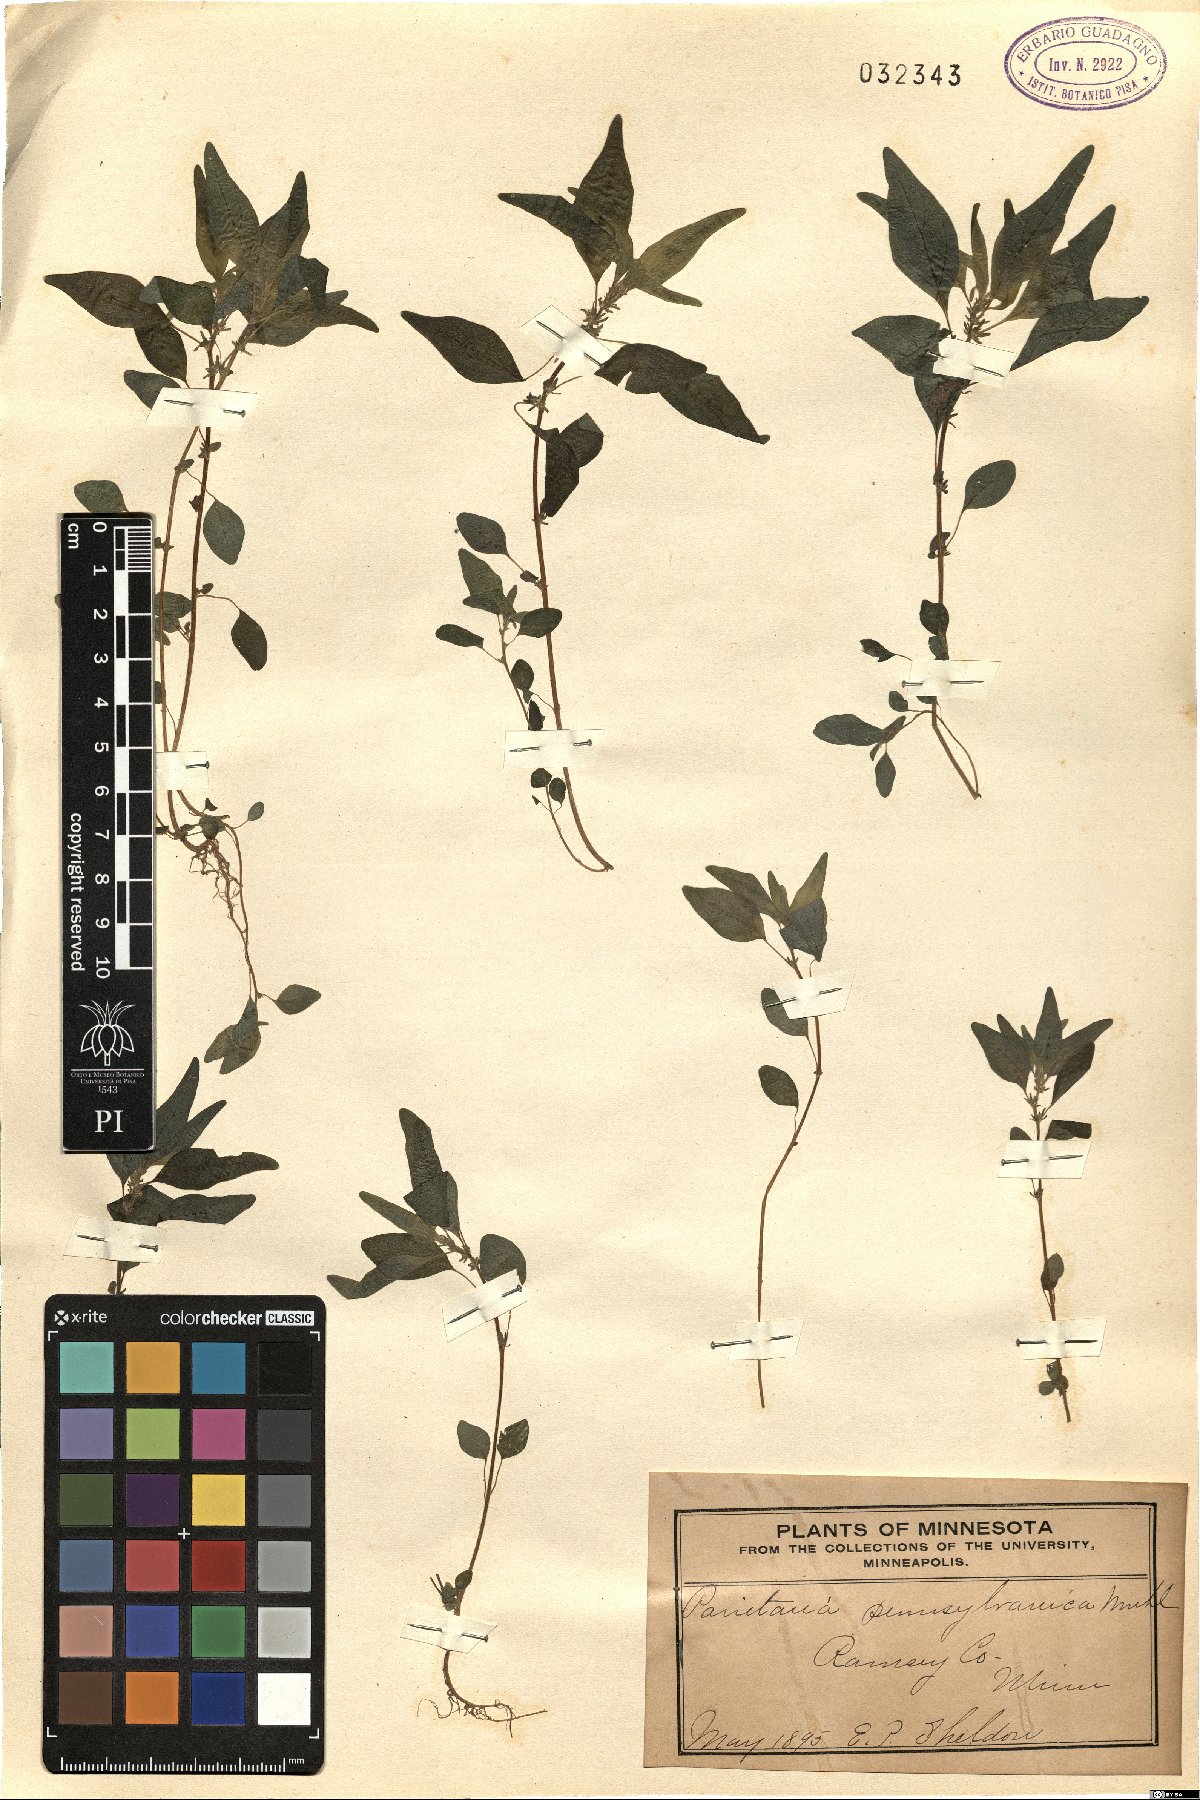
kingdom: Plantae
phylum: Tracheophyta
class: Magnoliopsida
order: Rosales
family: Urticaceae
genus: Parietaria
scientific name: Parietaria pensylvanica
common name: Pennsylvania pellitory
